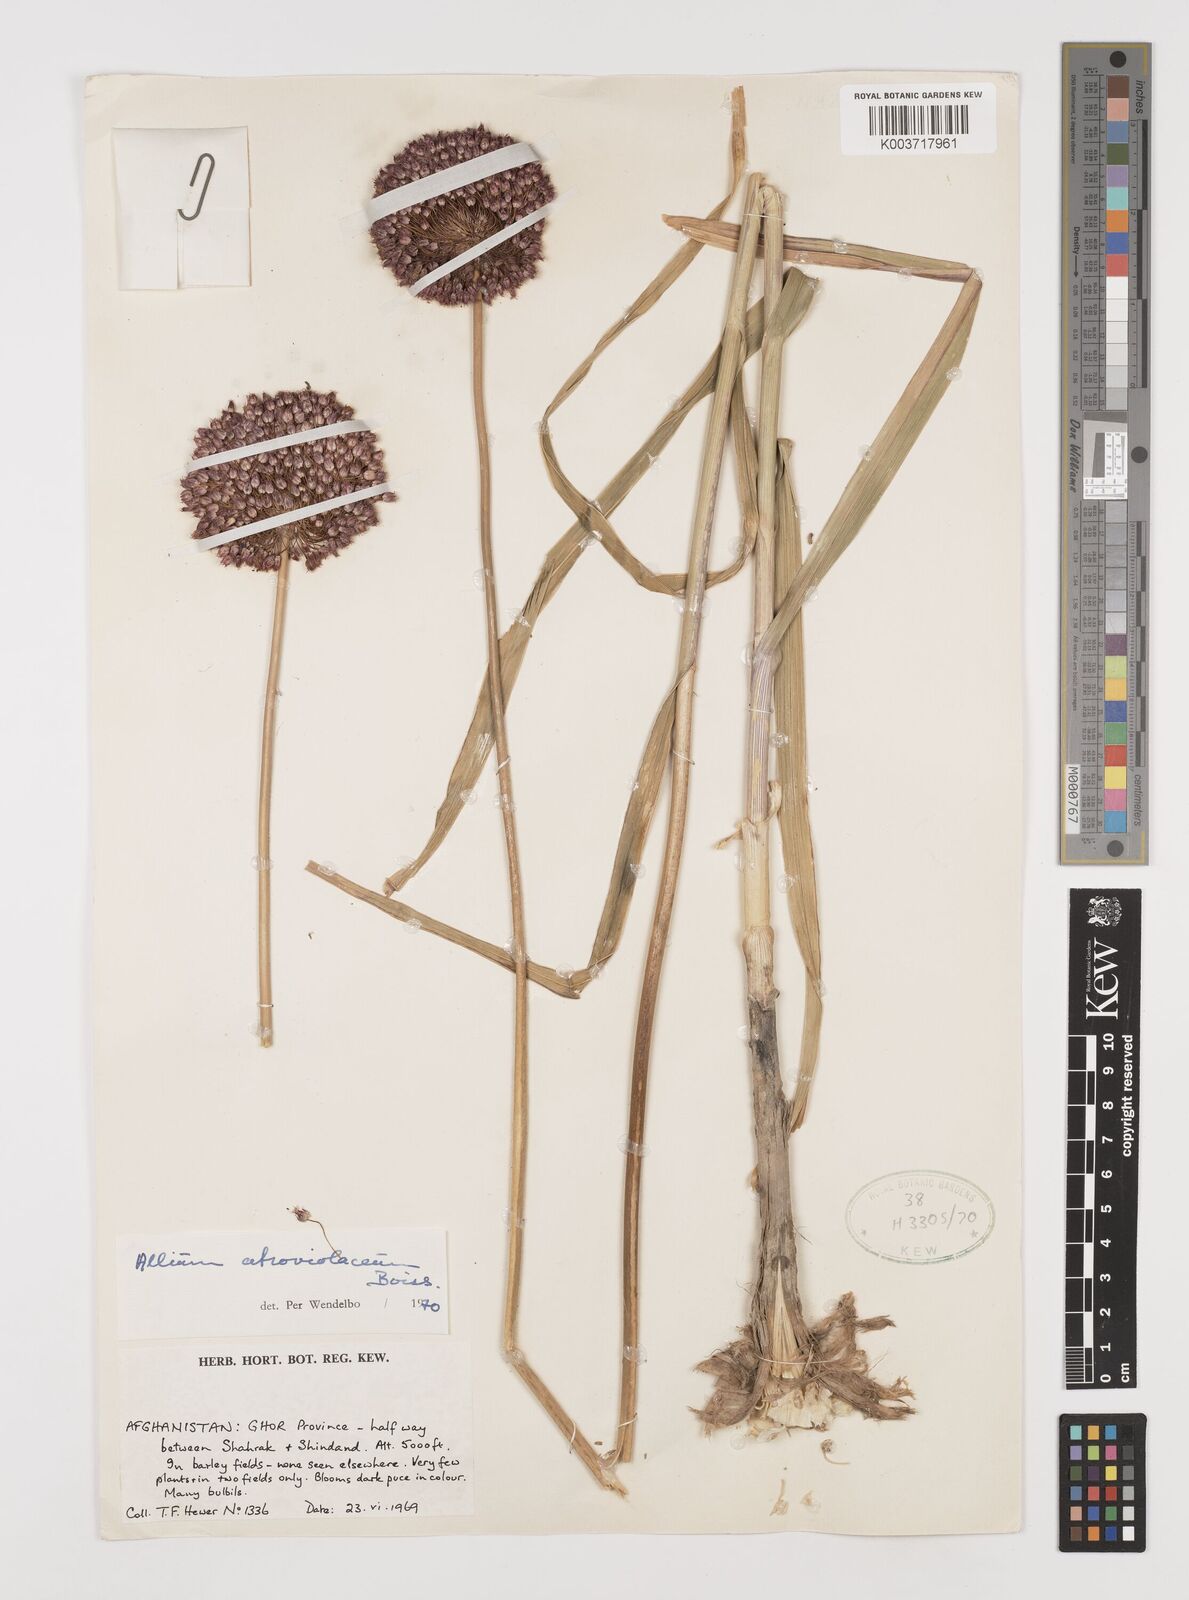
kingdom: Plantae
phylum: Tracheophyta
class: Liliopsida
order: Asparagales
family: Amaryllidaceae
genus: Allium
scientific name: Allium atroviolaceum
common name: Broadleaf wild leek
